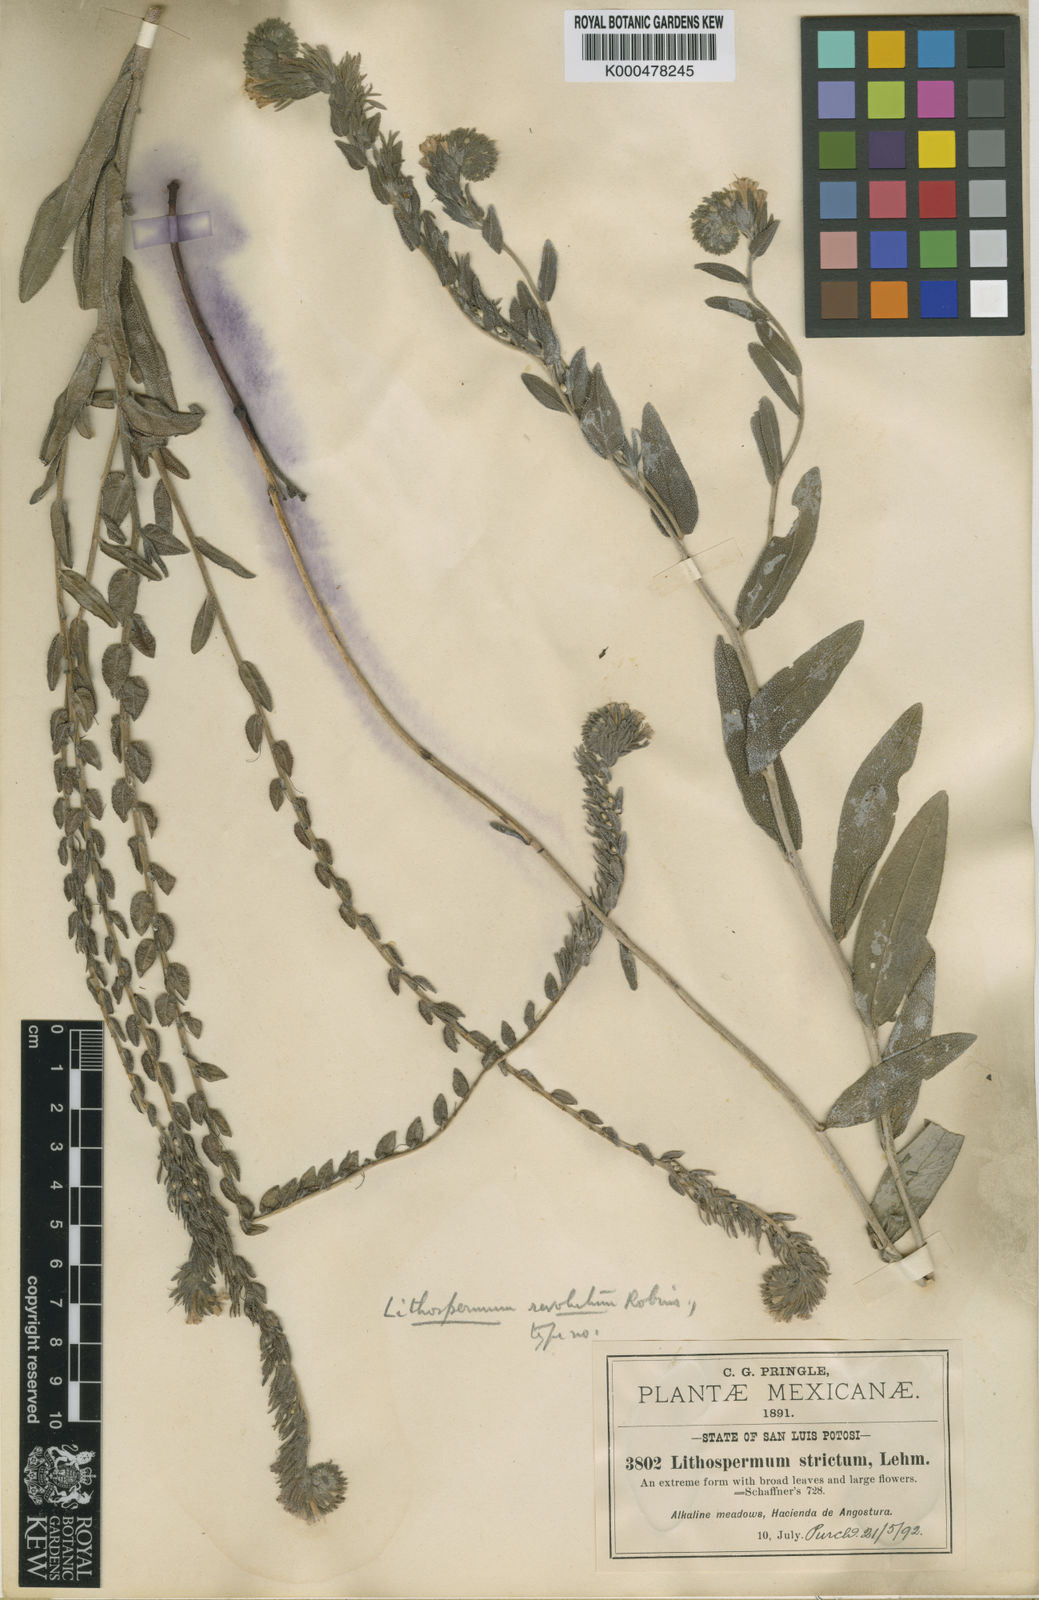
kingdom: Plantae
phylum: Tracheophyta
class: Magnoliopsida
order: Boraginales
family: Boraginaceae
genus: Lithospermum
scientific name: Lithospermum revolutum
